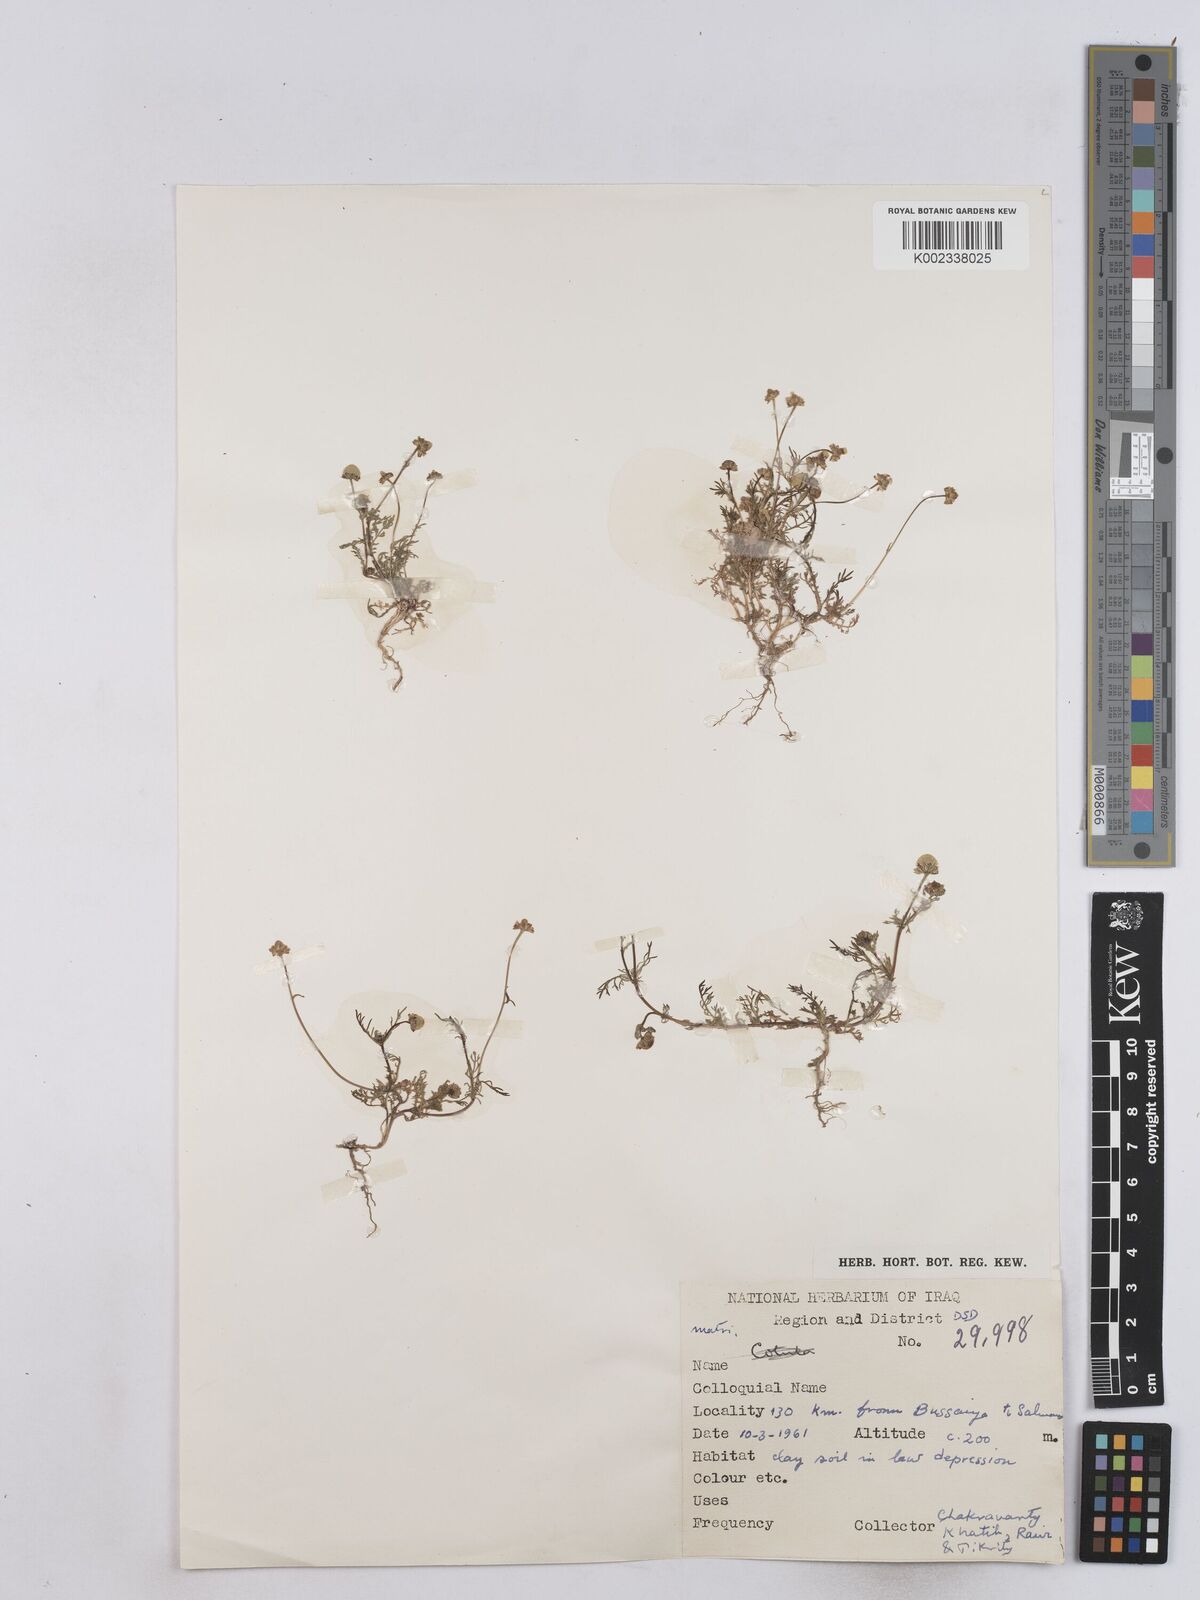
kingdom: Plantae
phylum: Tracheophyta
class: Magnoliopsida
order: Asterales
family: Asteraceae
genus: Matricaria
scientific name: Matricaria aurea
